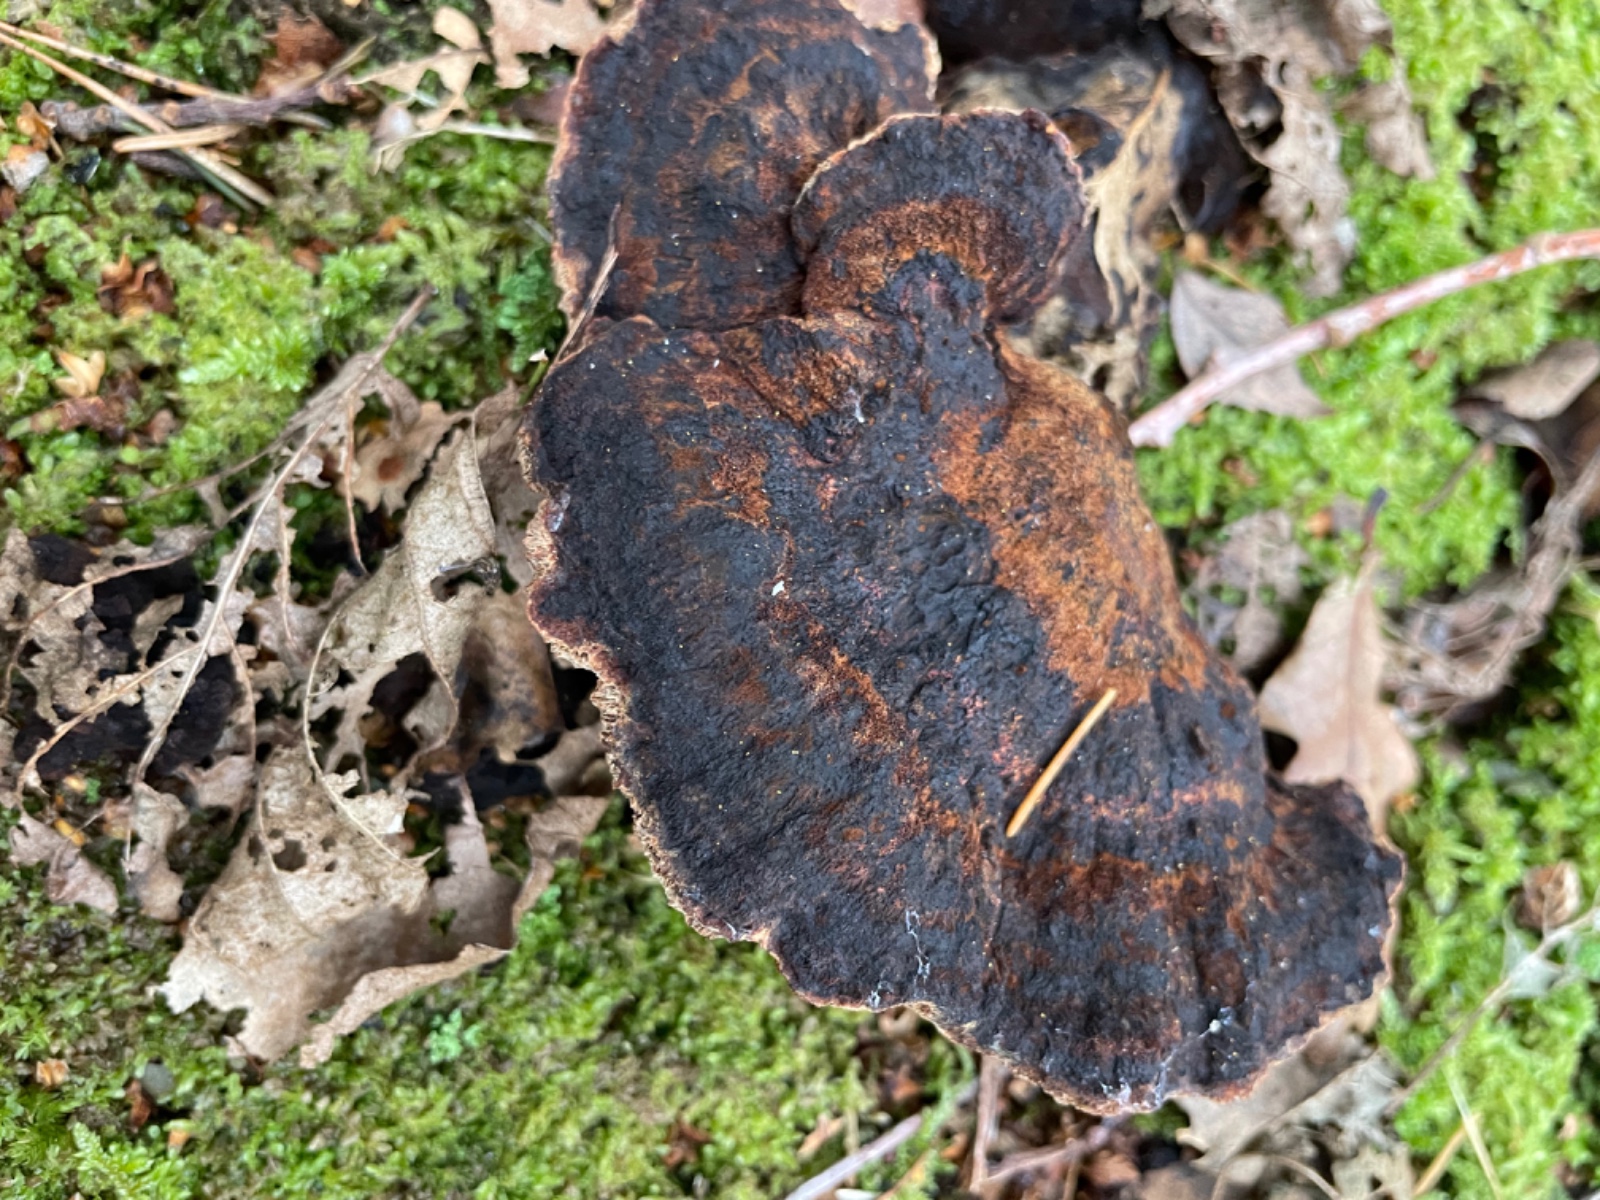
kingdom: Fungi
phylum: Basidiomycota
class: Agaricomycetes
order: Polyporales
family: Ischnodermataceae
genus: Ischnoderma
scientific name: Ischnoderma benzoinum
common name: gran-tjæreporesvamp
